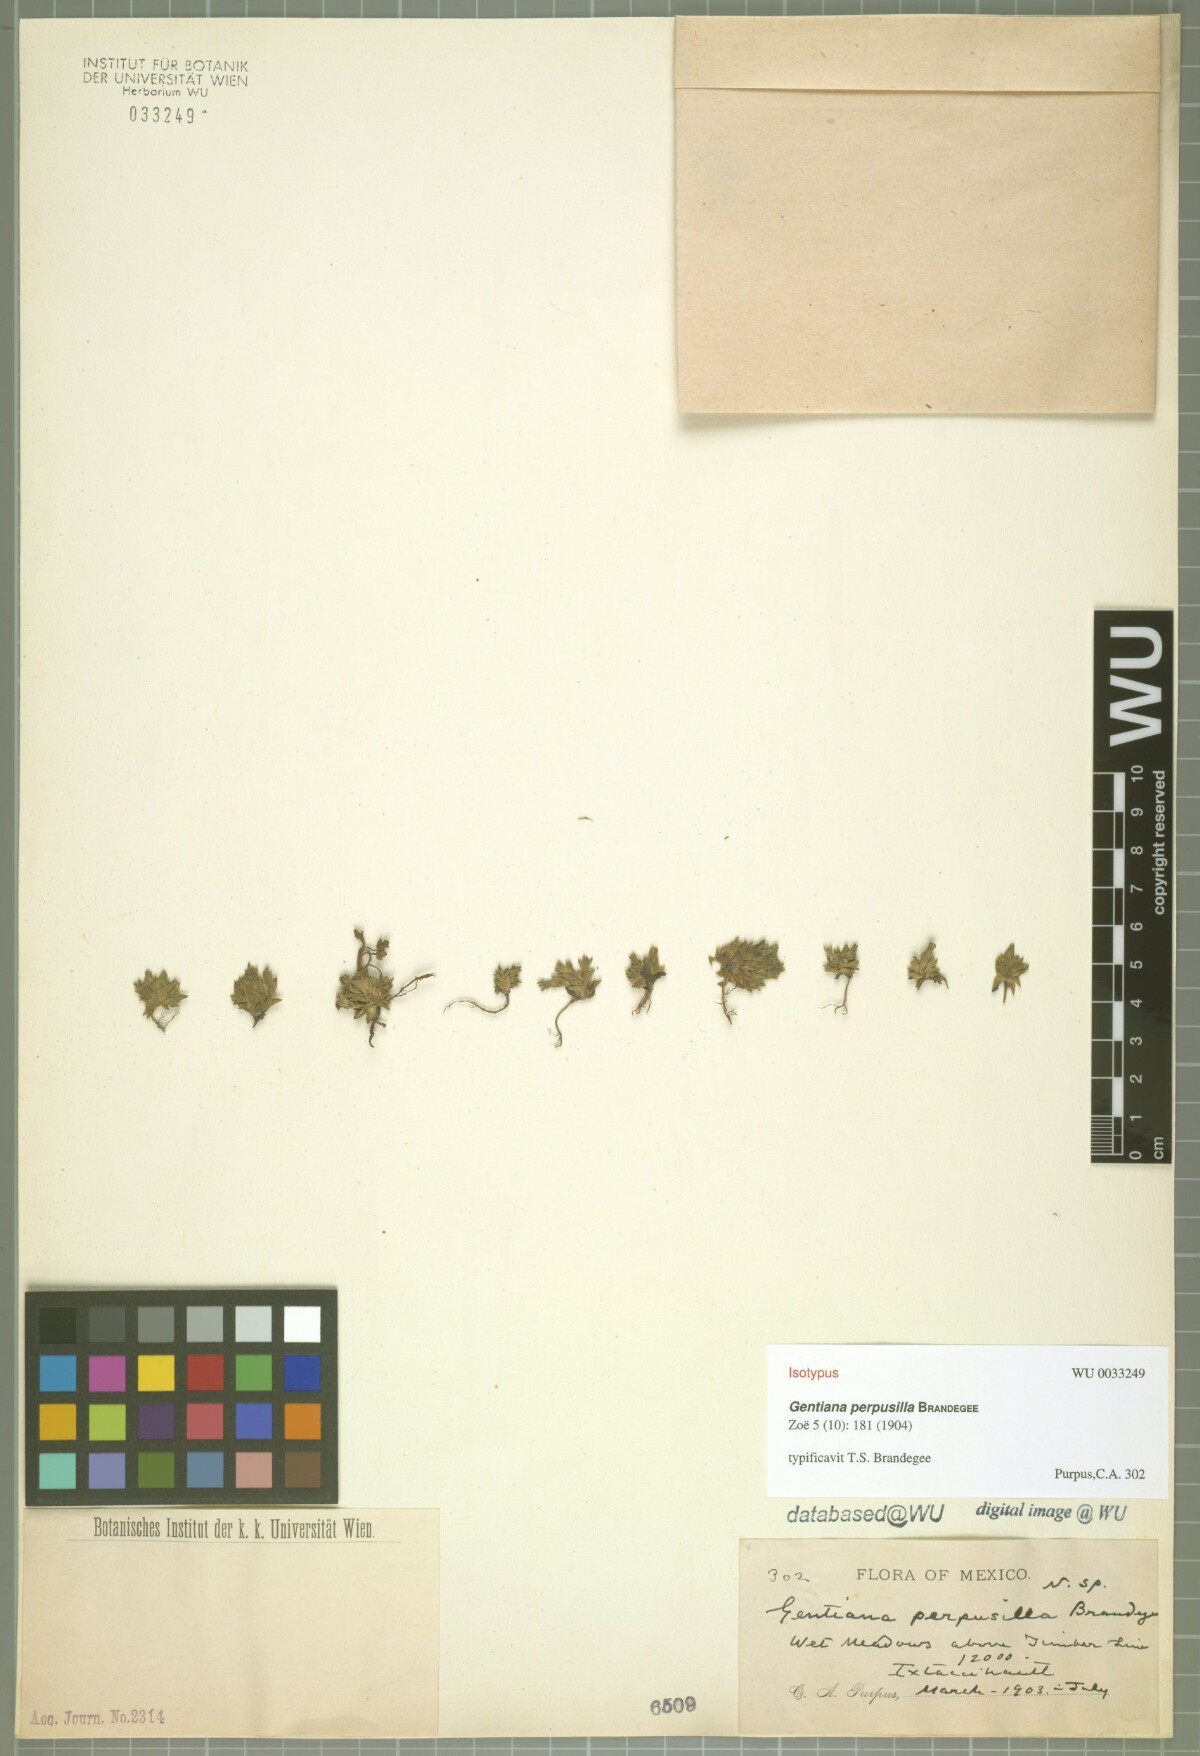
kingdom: Plantae
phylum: Tracheophyta
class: Magnoliopsida
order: Gentianales
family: Gentianaceae
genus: Gentiana
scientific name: Gentiana perpusilla
